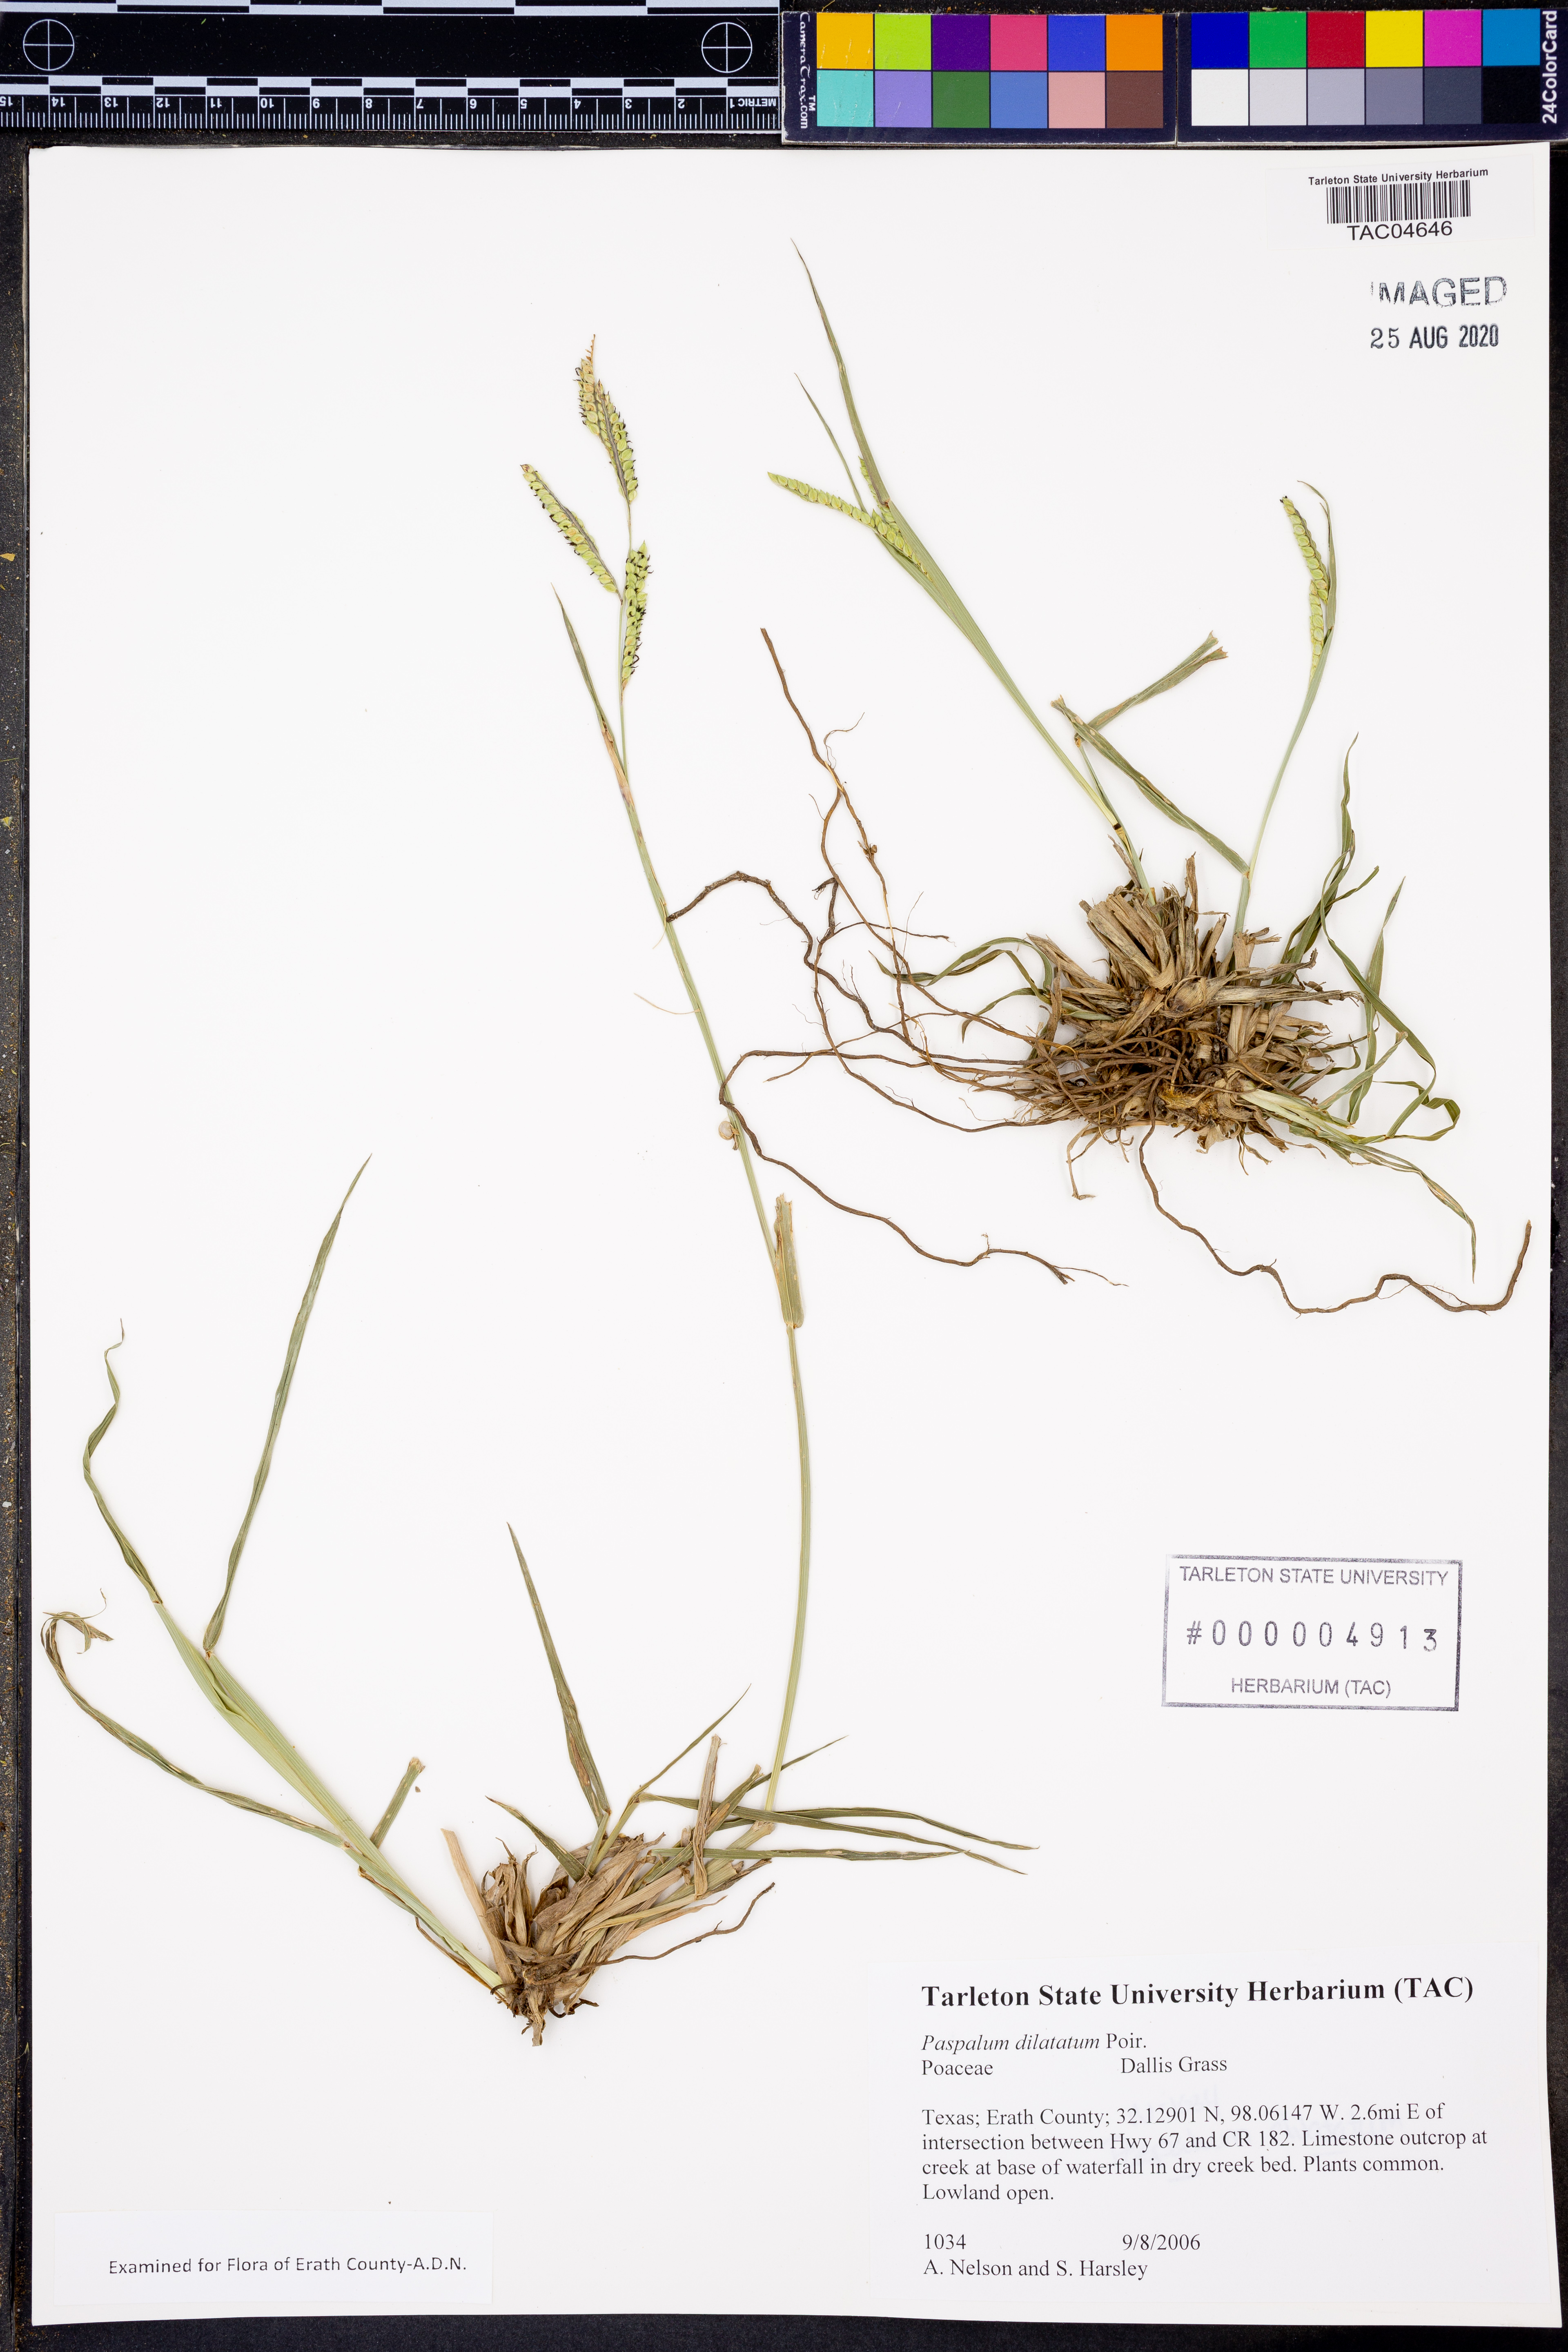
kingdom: Plantae
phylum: Tracheophyta
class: Liliopsida
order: Poales
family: Poaceae
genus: Paspalum
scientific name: Paspalum dilatatum
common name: Dallisgrass
